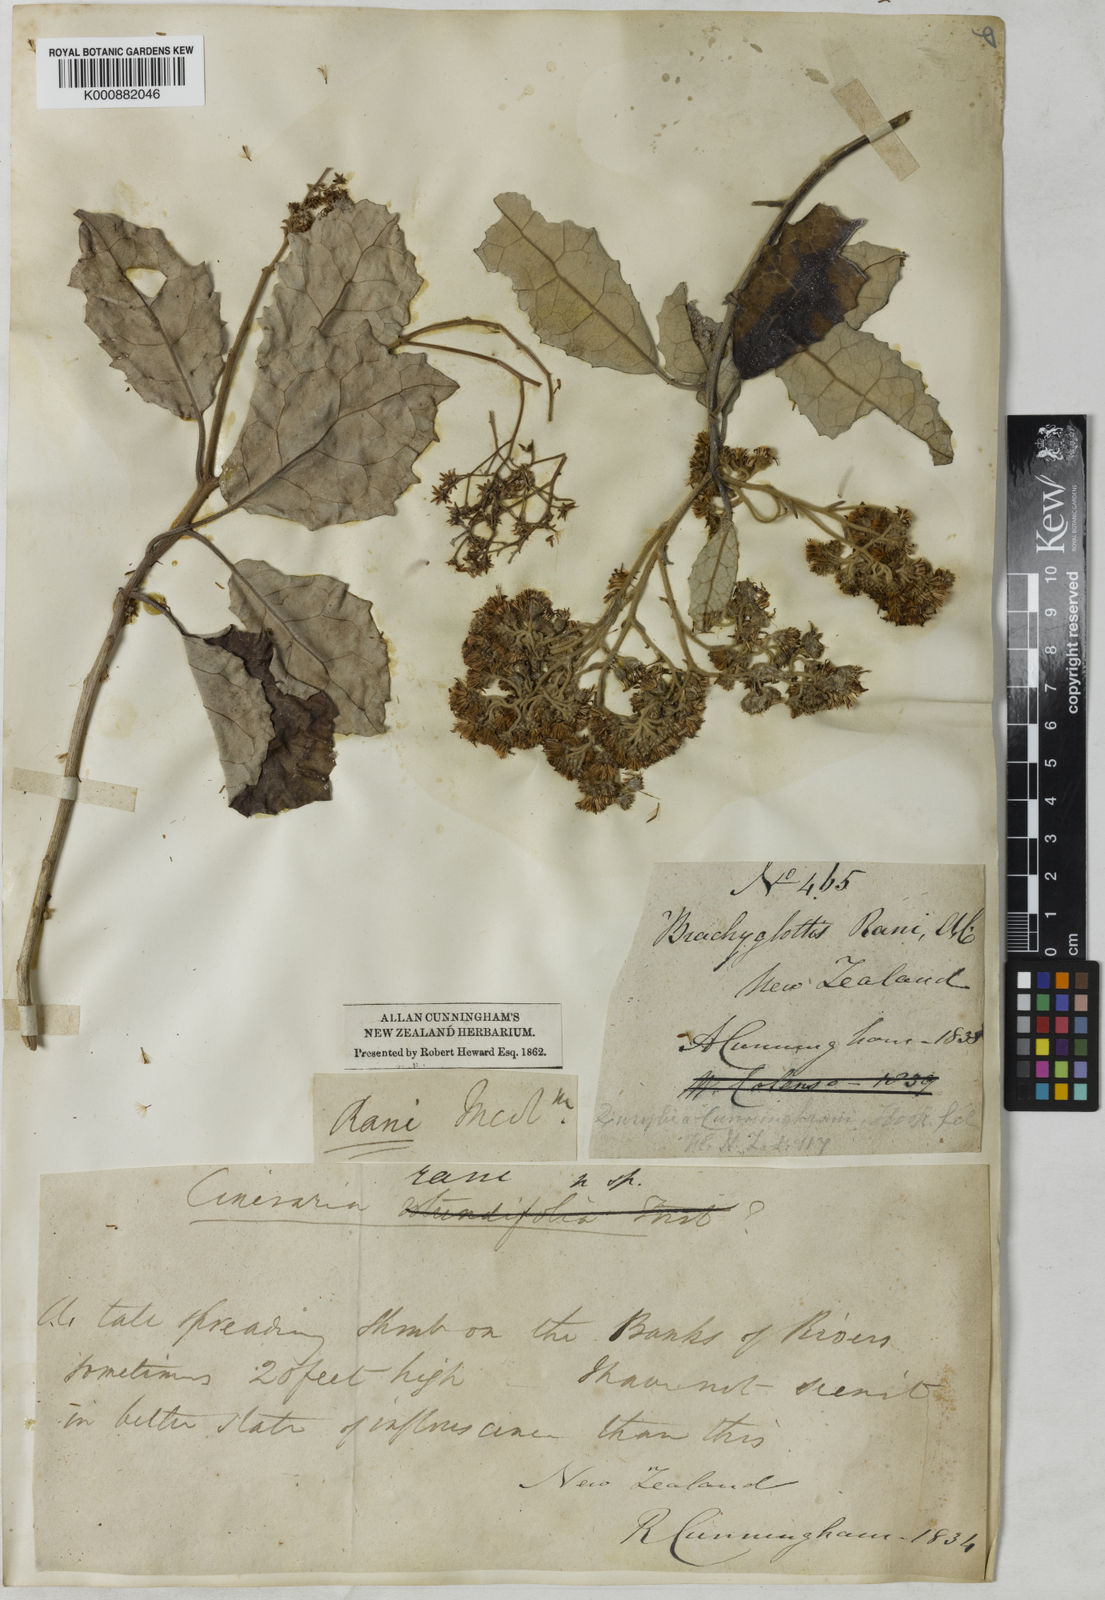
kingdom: Plantae
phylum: Tracheophyta
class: Magnoliopsida
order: Asterales
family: Asteraceae
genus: Olearia
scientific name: Olearia ilicifolia
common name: Maori-holly
